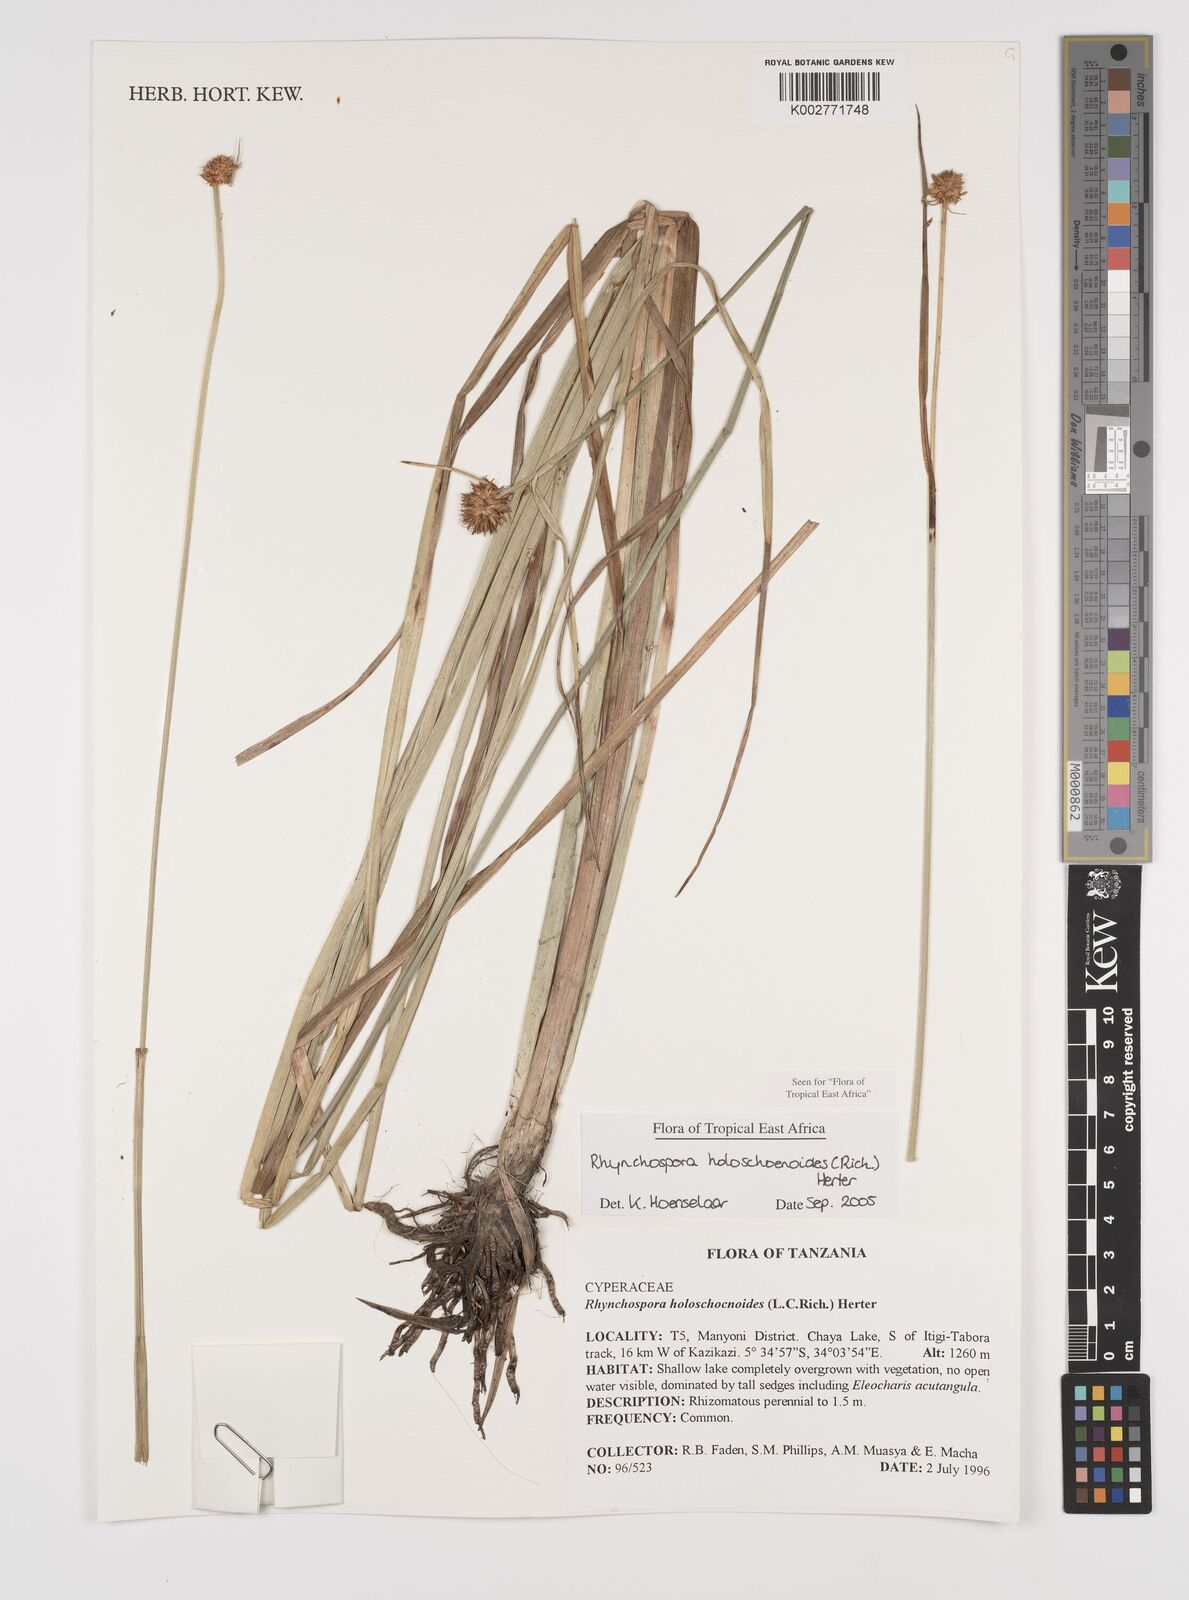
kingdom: Plantae
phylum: Tracheophyta
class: Liliopsida
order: Poales
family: Cyperaceae
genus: Rhynchospora
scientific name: Rhynchospora holoschoenoides
